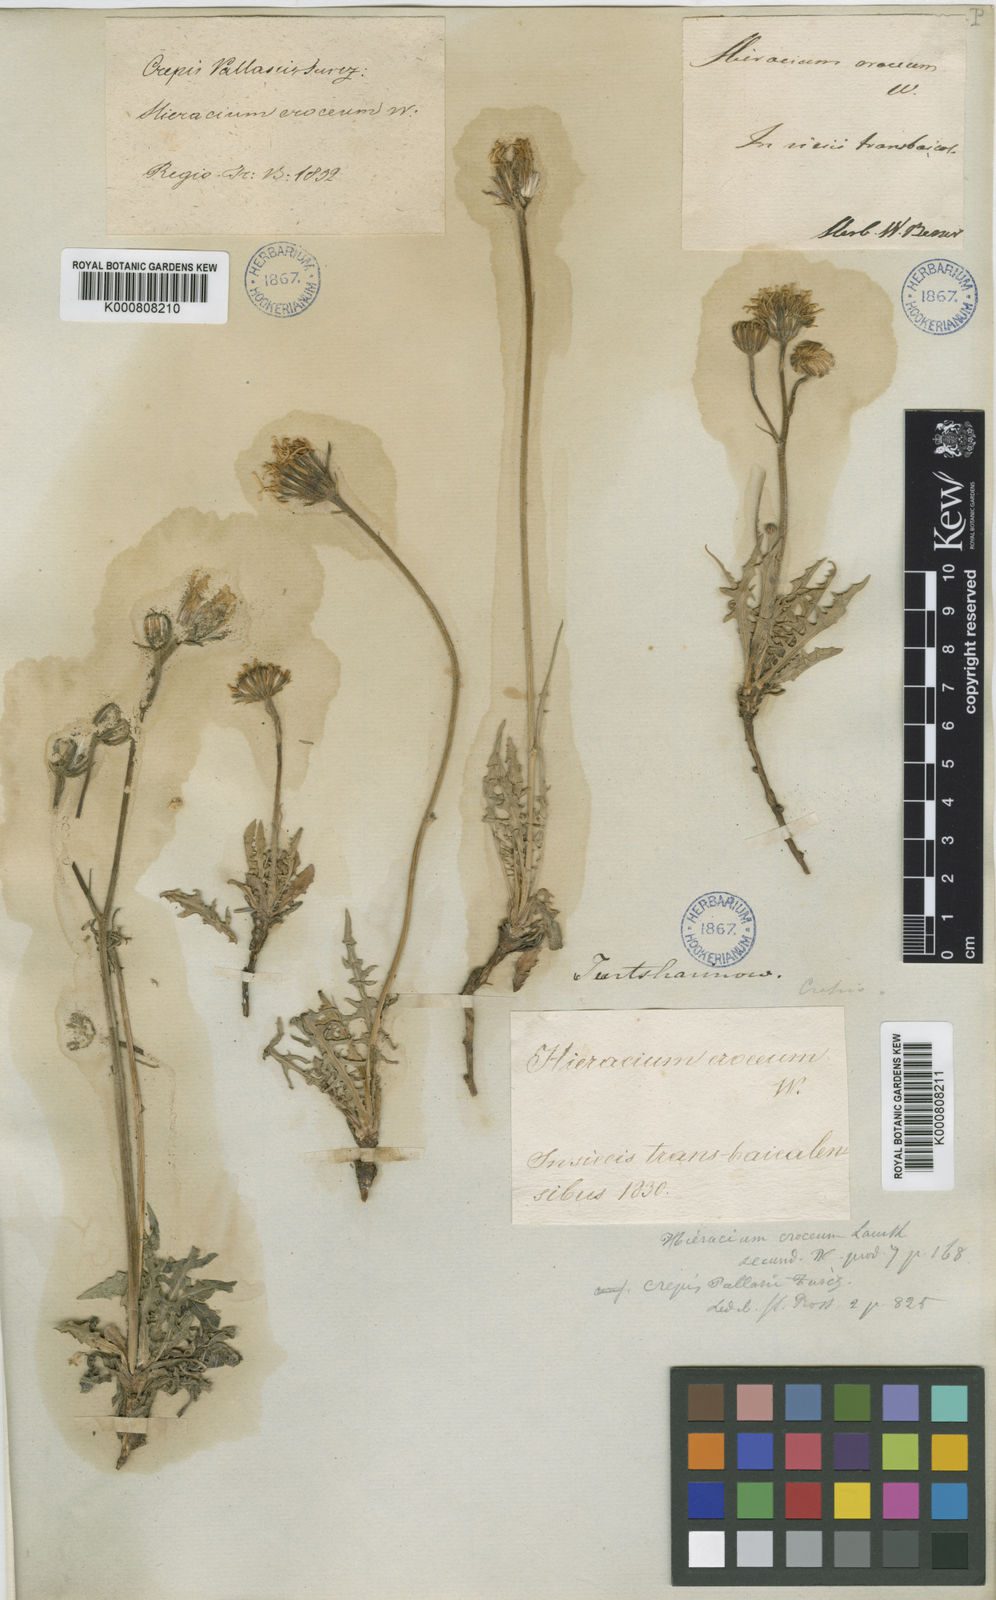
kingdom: Plantae
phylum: Tracheophyta
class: Magnoliopsida
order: Asterales
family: Asteraceae
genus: Crepis
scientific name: Crepis crocea
